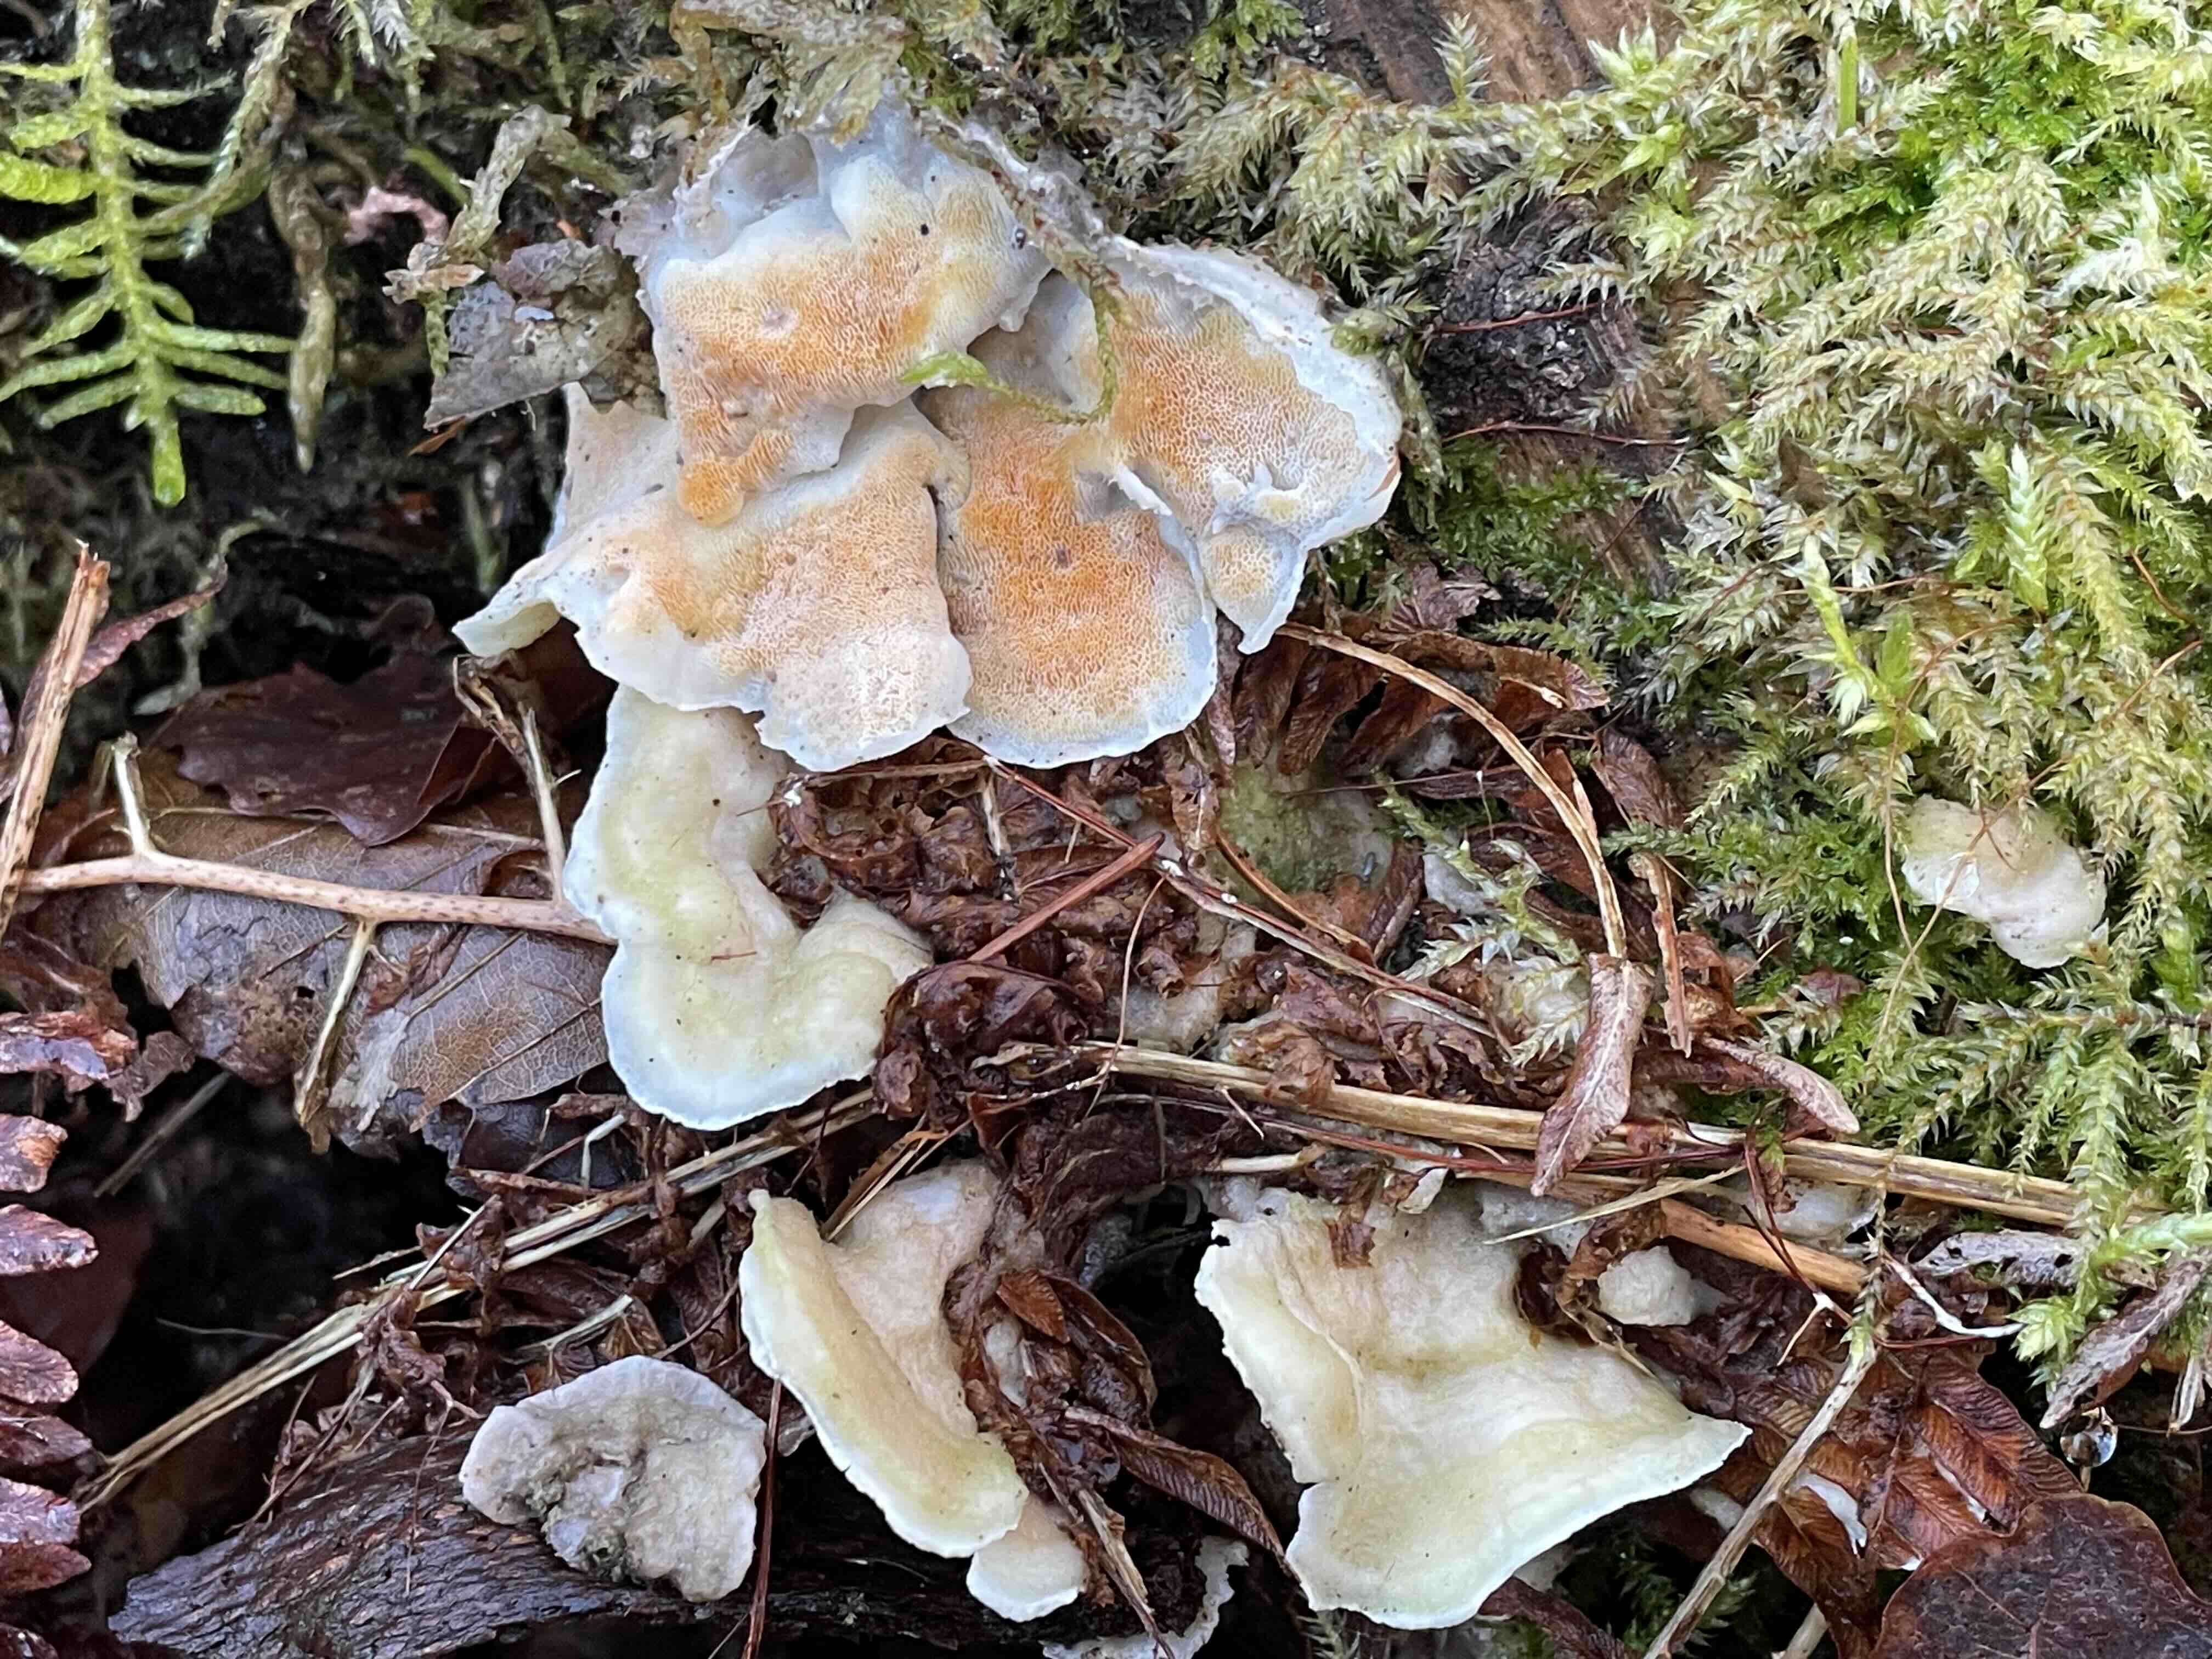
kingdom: Fungi
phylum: Basidiomycota
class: Agaricomycetes
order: Polyporales
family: Incrustoporiaceae
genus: Skeletocutis
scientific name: Skeletocutis amorpha
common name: orange krystalporesvamp
